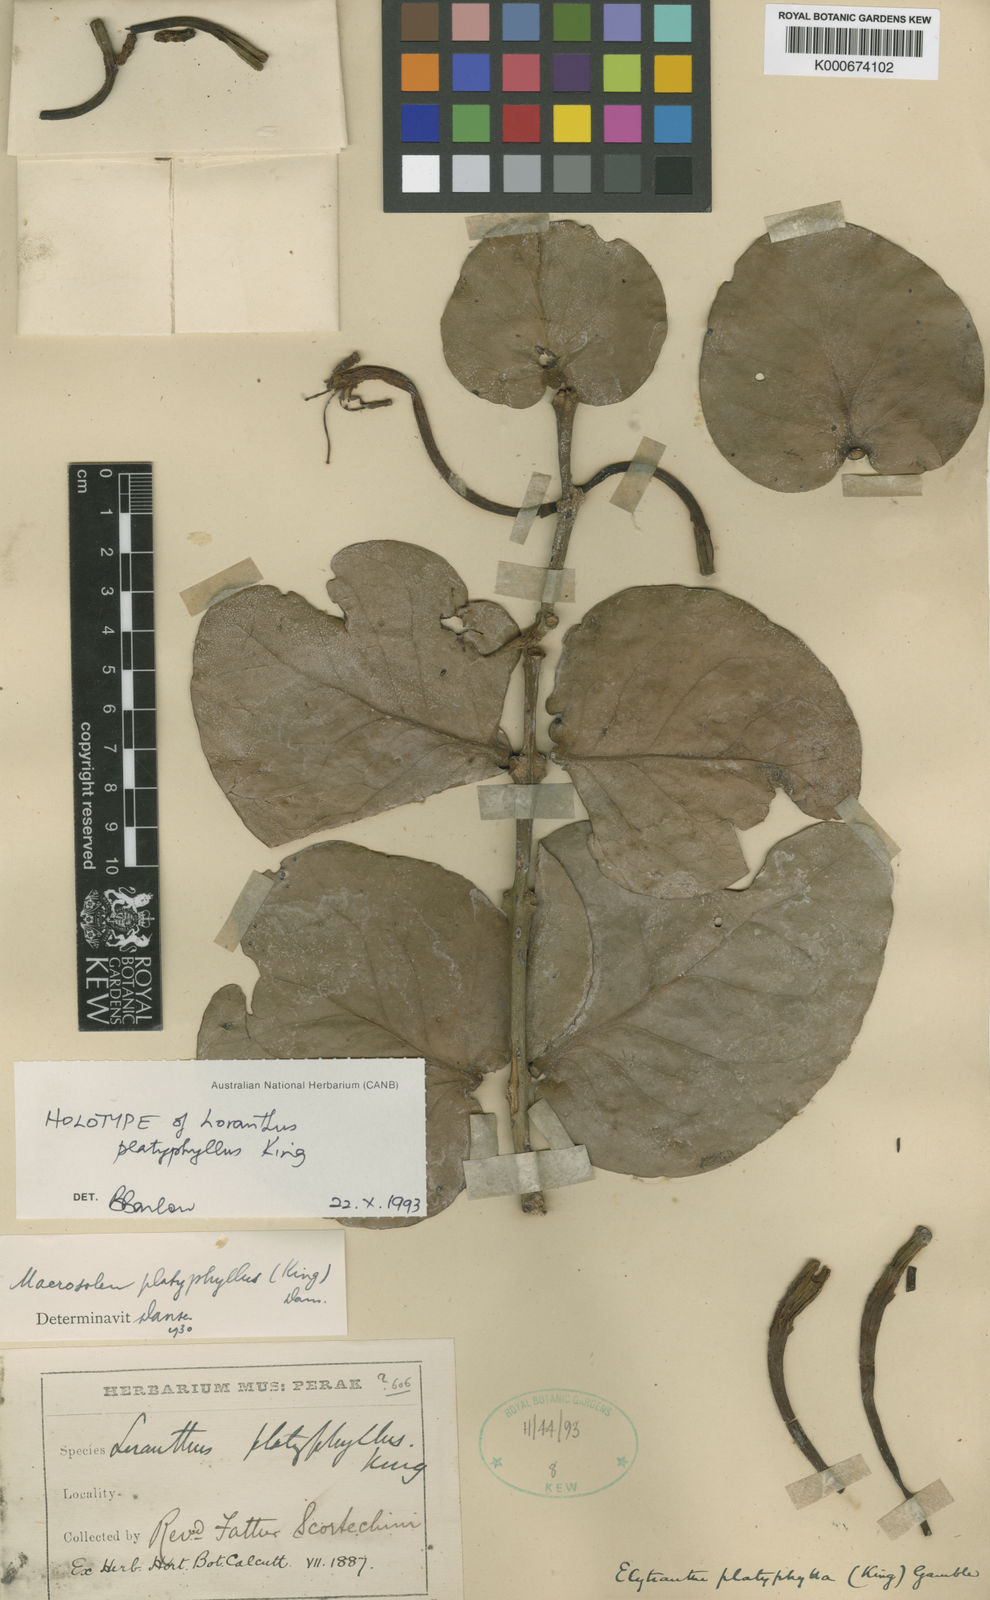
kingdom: Plantae
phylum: Tracheophyta
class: Magnoliopsida
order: Santalales
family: Loranthaceae
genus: Macrosolen
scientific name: Macrosolen platyphyllus
